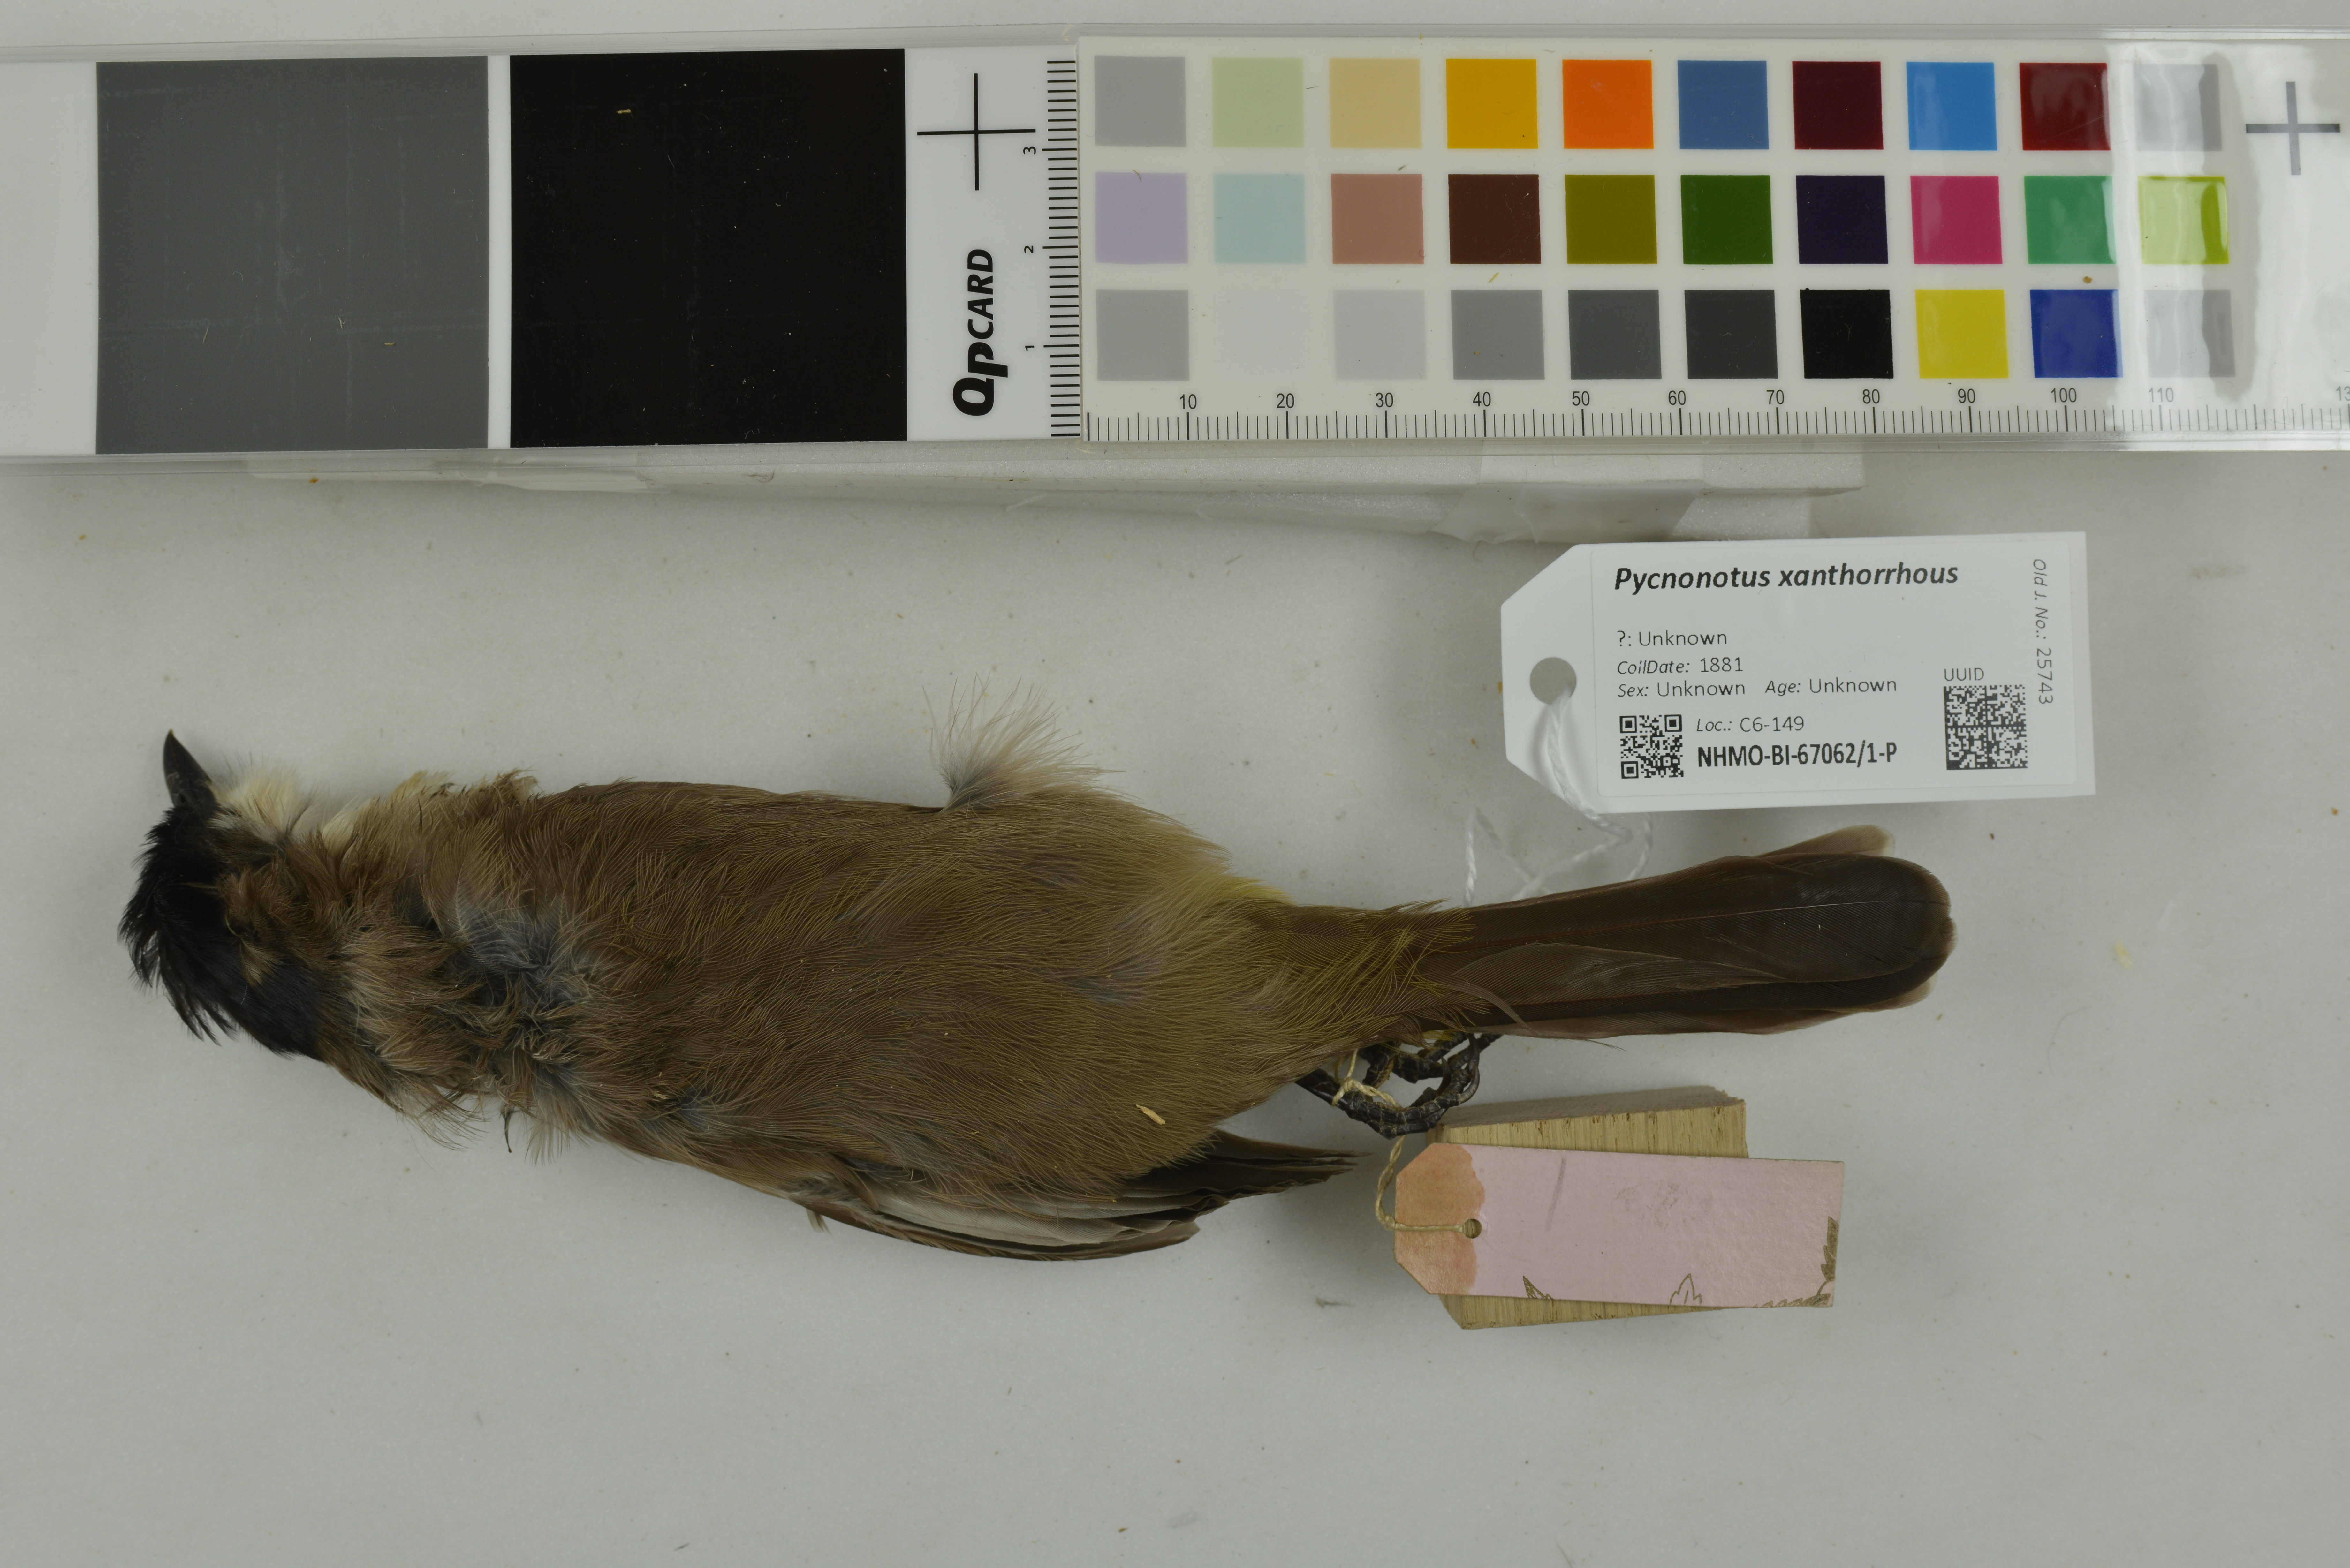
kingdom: Animalia
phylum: Chordata
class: Aves
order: Passeriformes
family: Pycnonotidae
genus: Pycnonotus
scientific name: Pycnonotus xanthorrhous
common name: Brown-breasted bulbul
